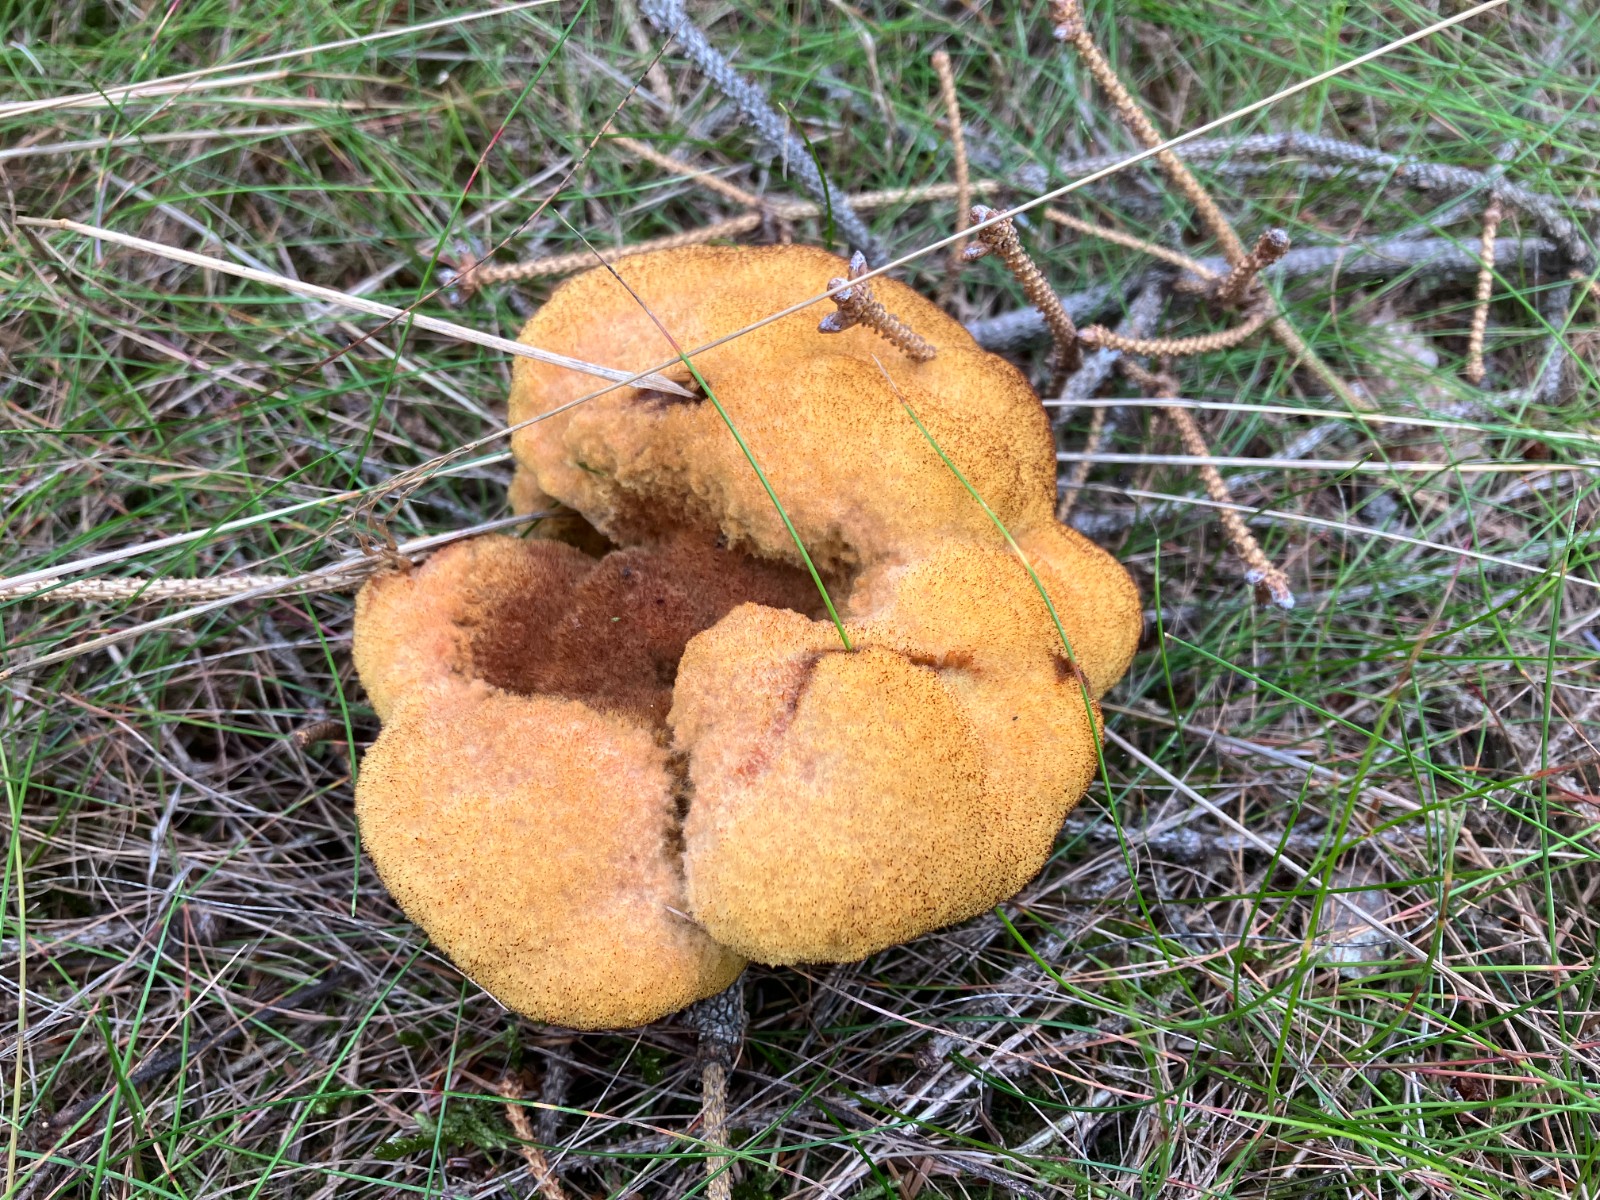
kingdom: Fungi
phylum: Basidiomycota
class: Agaricomycetes
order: Polyporales
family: Laetiporaceae
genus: Phaeolus
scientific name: Phaeolus schweinitzii
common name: brunporesvamp
